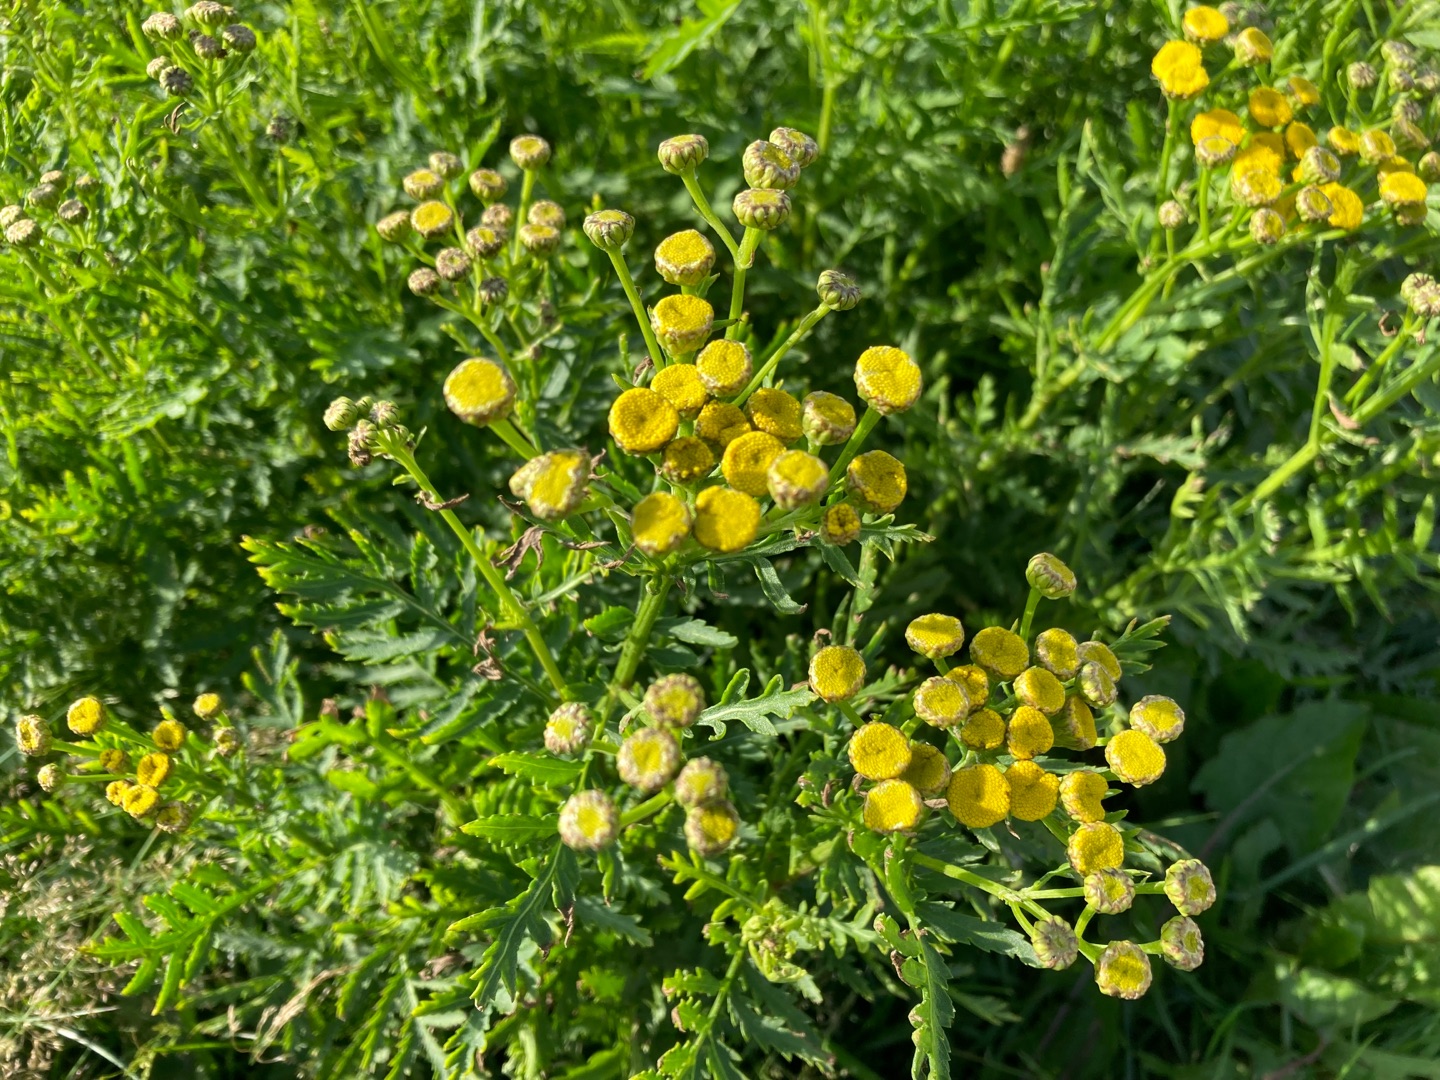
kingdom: Plantae
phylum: Tracheophyta
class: Magnoliopsida
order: Asterales
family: Asteraceae
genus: Tanacetum
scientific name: Tanacetum vulgare
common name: Rejnfan
